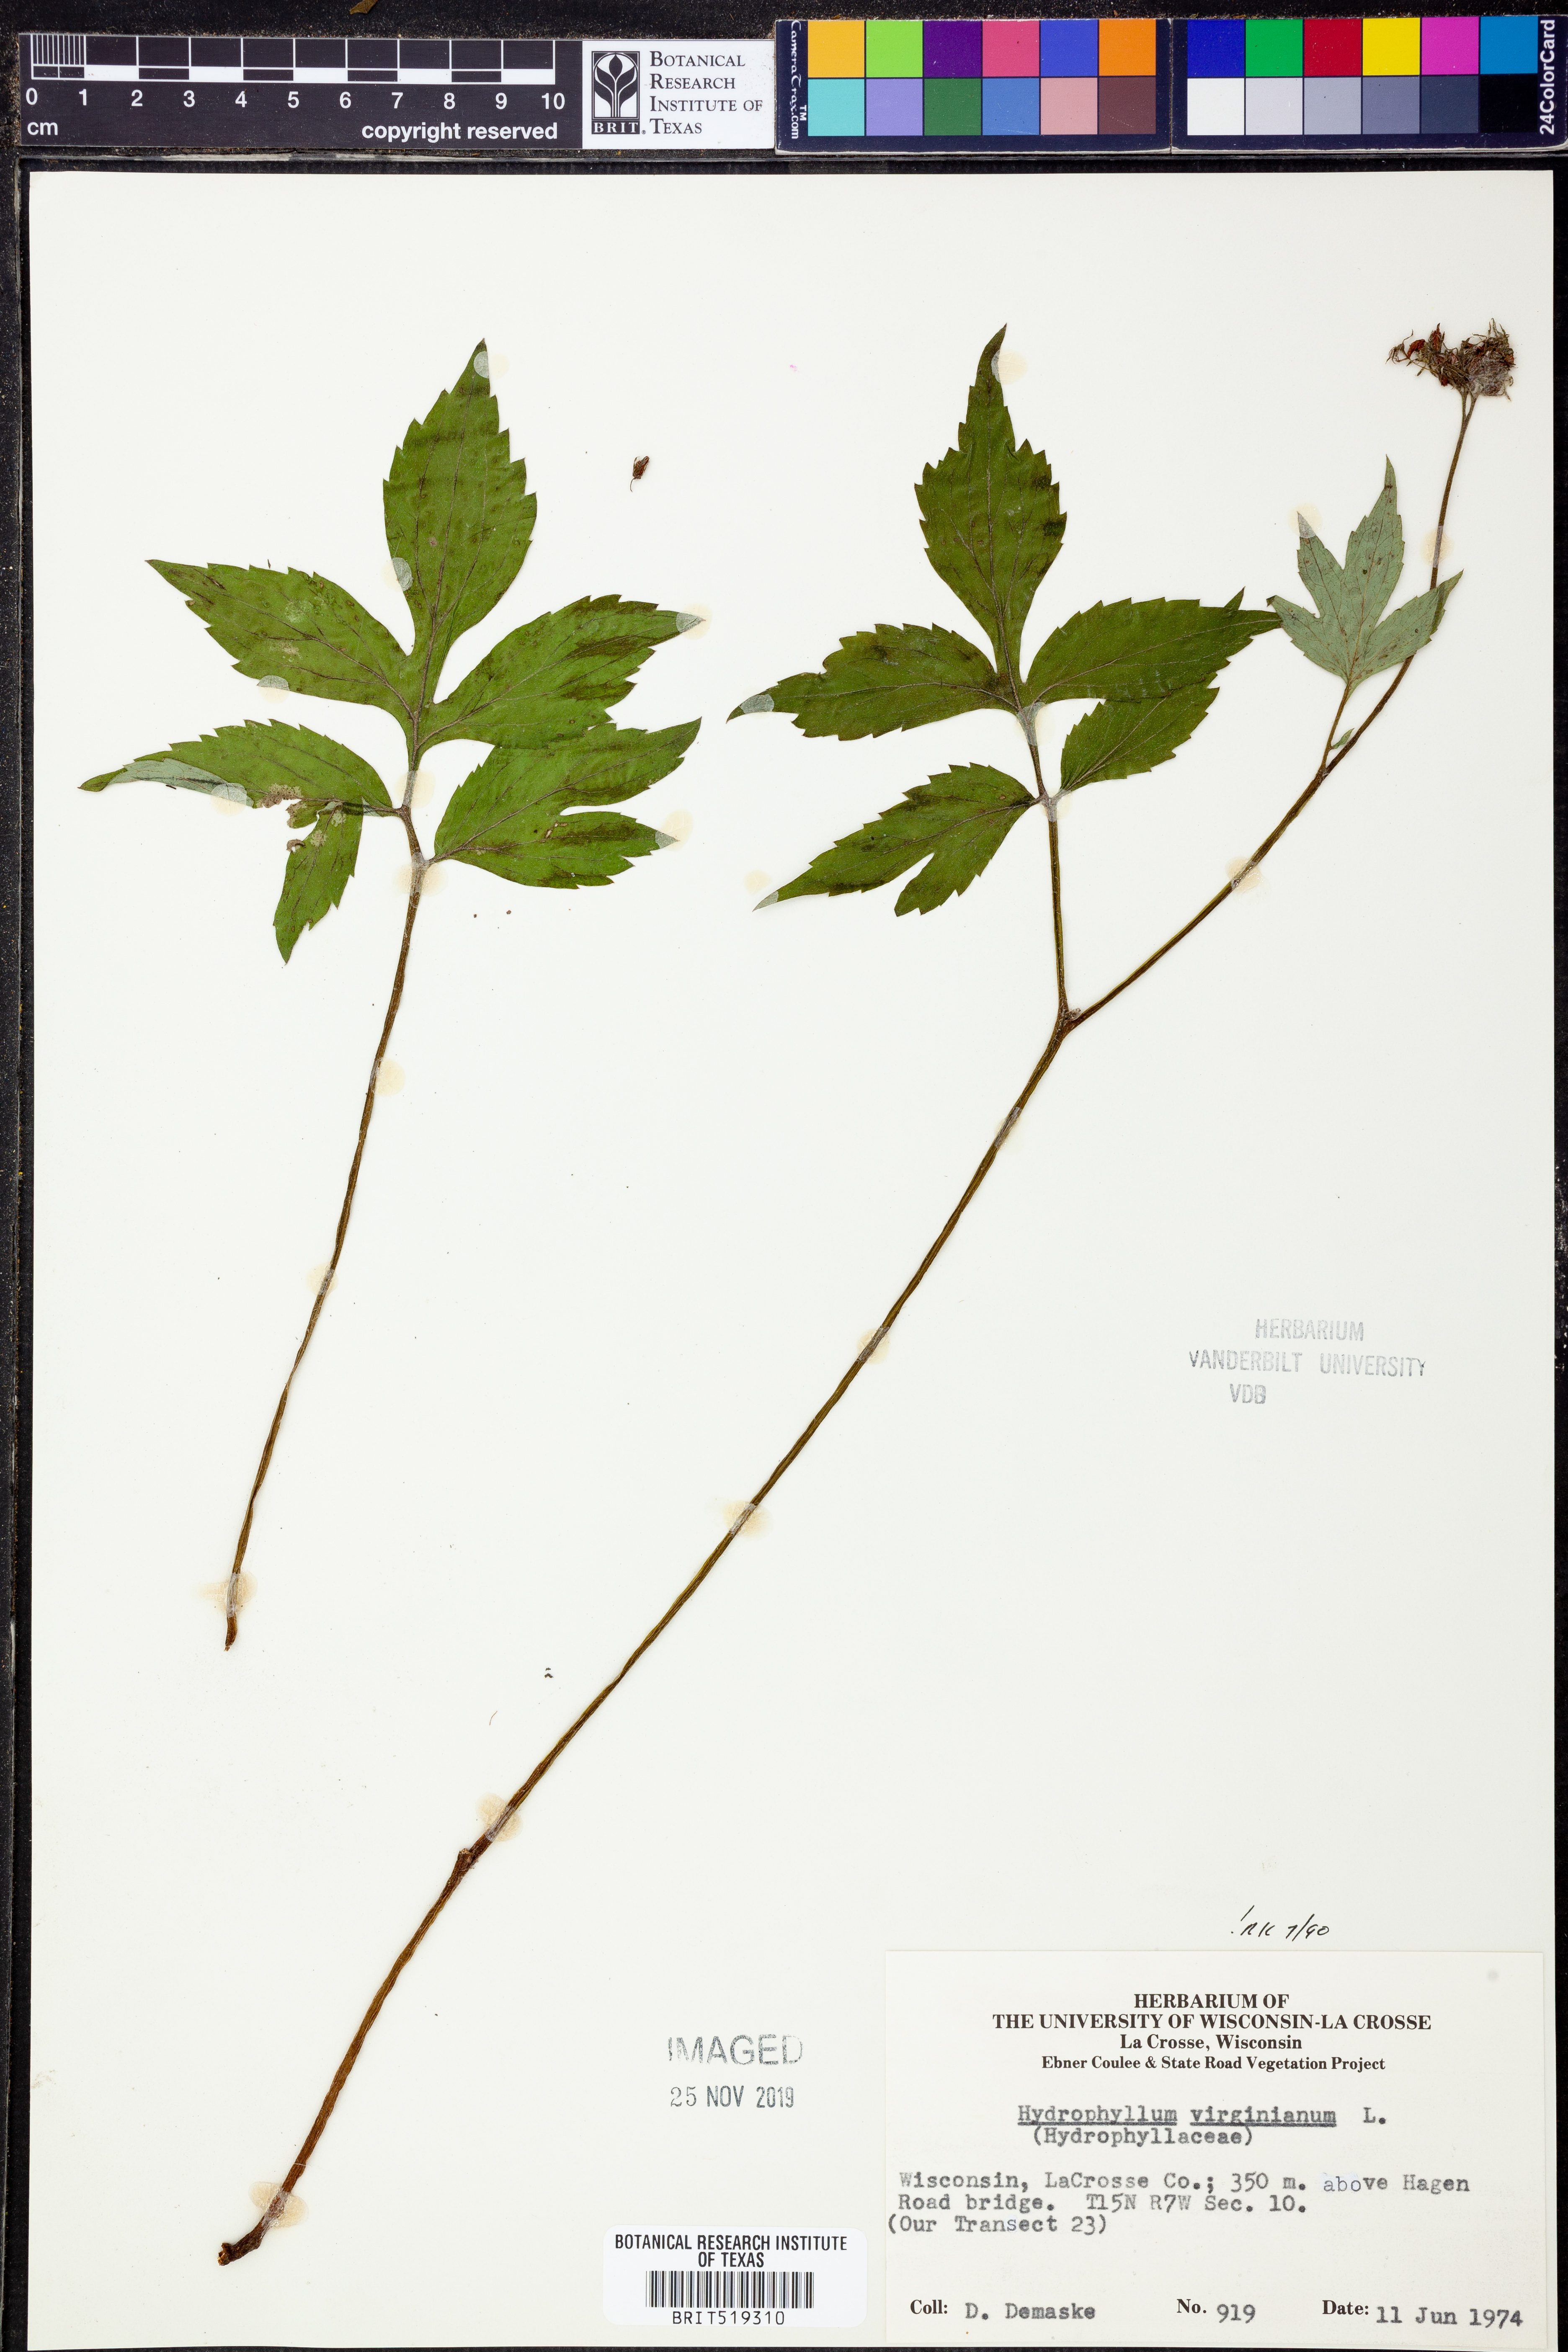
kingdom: Plantae
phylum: Tracheophyta
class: Magnoliopsida
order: Boraginales
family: Hydrophyllaceae
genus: Hydrophyllum
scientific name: Hydrophyllum virginianum
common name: Virginia waterleaf
